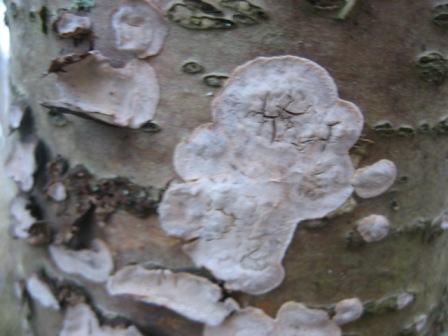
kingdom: Fungi
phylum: Basidiomycota
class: Agaricomycetes
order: Russulales
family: Stereaceae
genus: Stereum
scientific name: Stereum rugosum
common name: rynket lædersvamp
